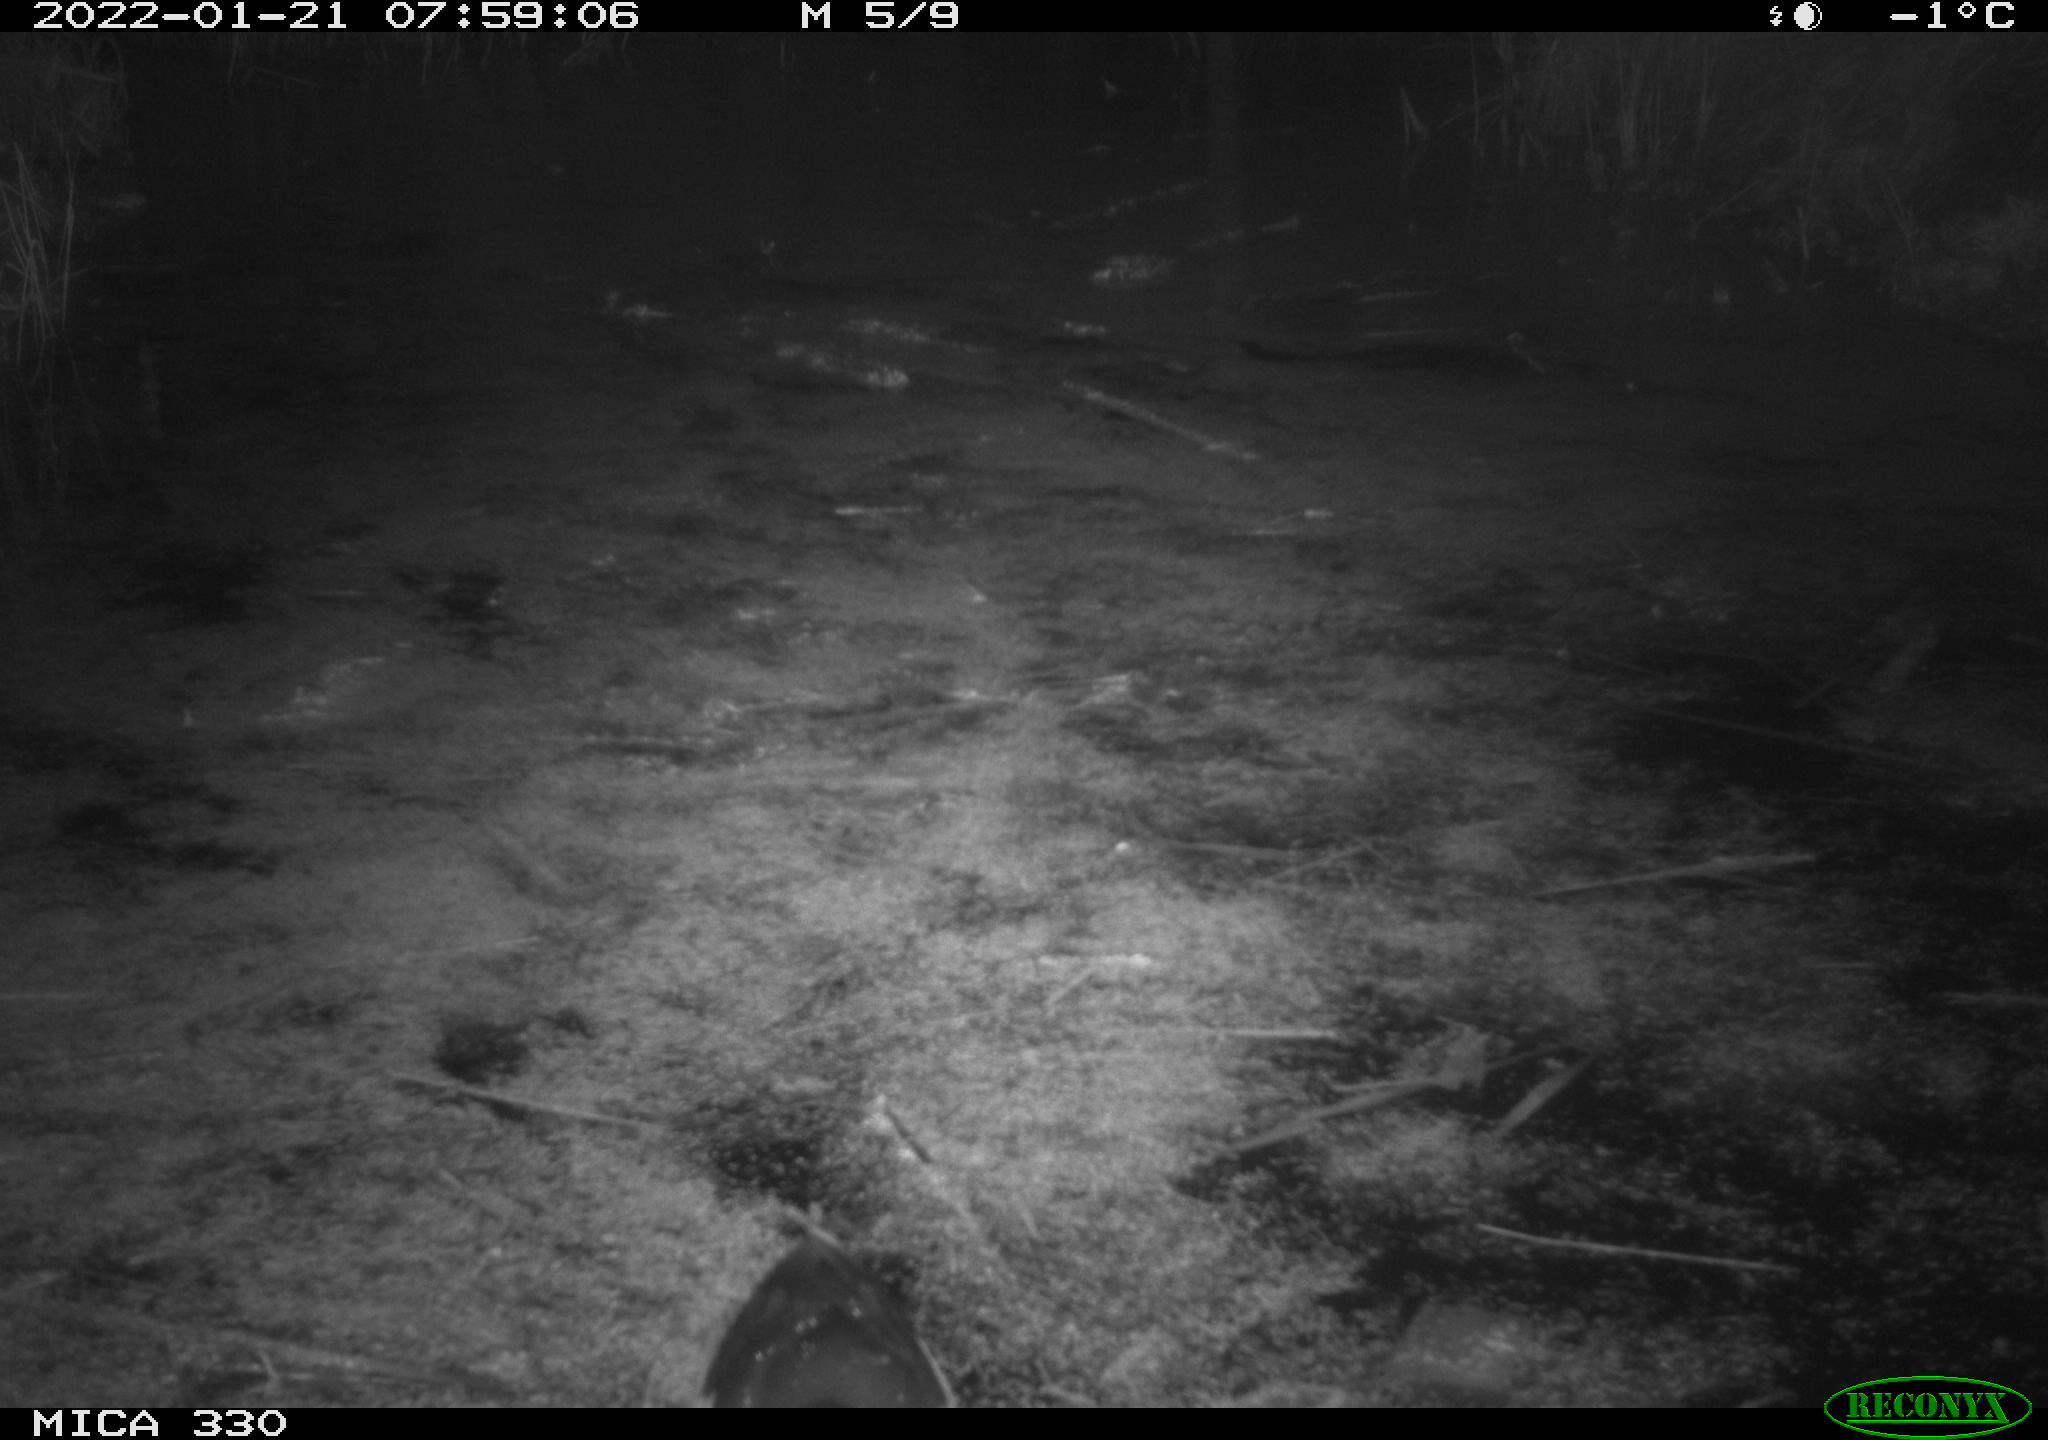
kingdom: Animalia
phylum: Chordata
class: Aves
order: Gruiformes
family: Rallidae
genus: Gallinula
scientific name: Gallinula chloropus
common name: Common moorhen
